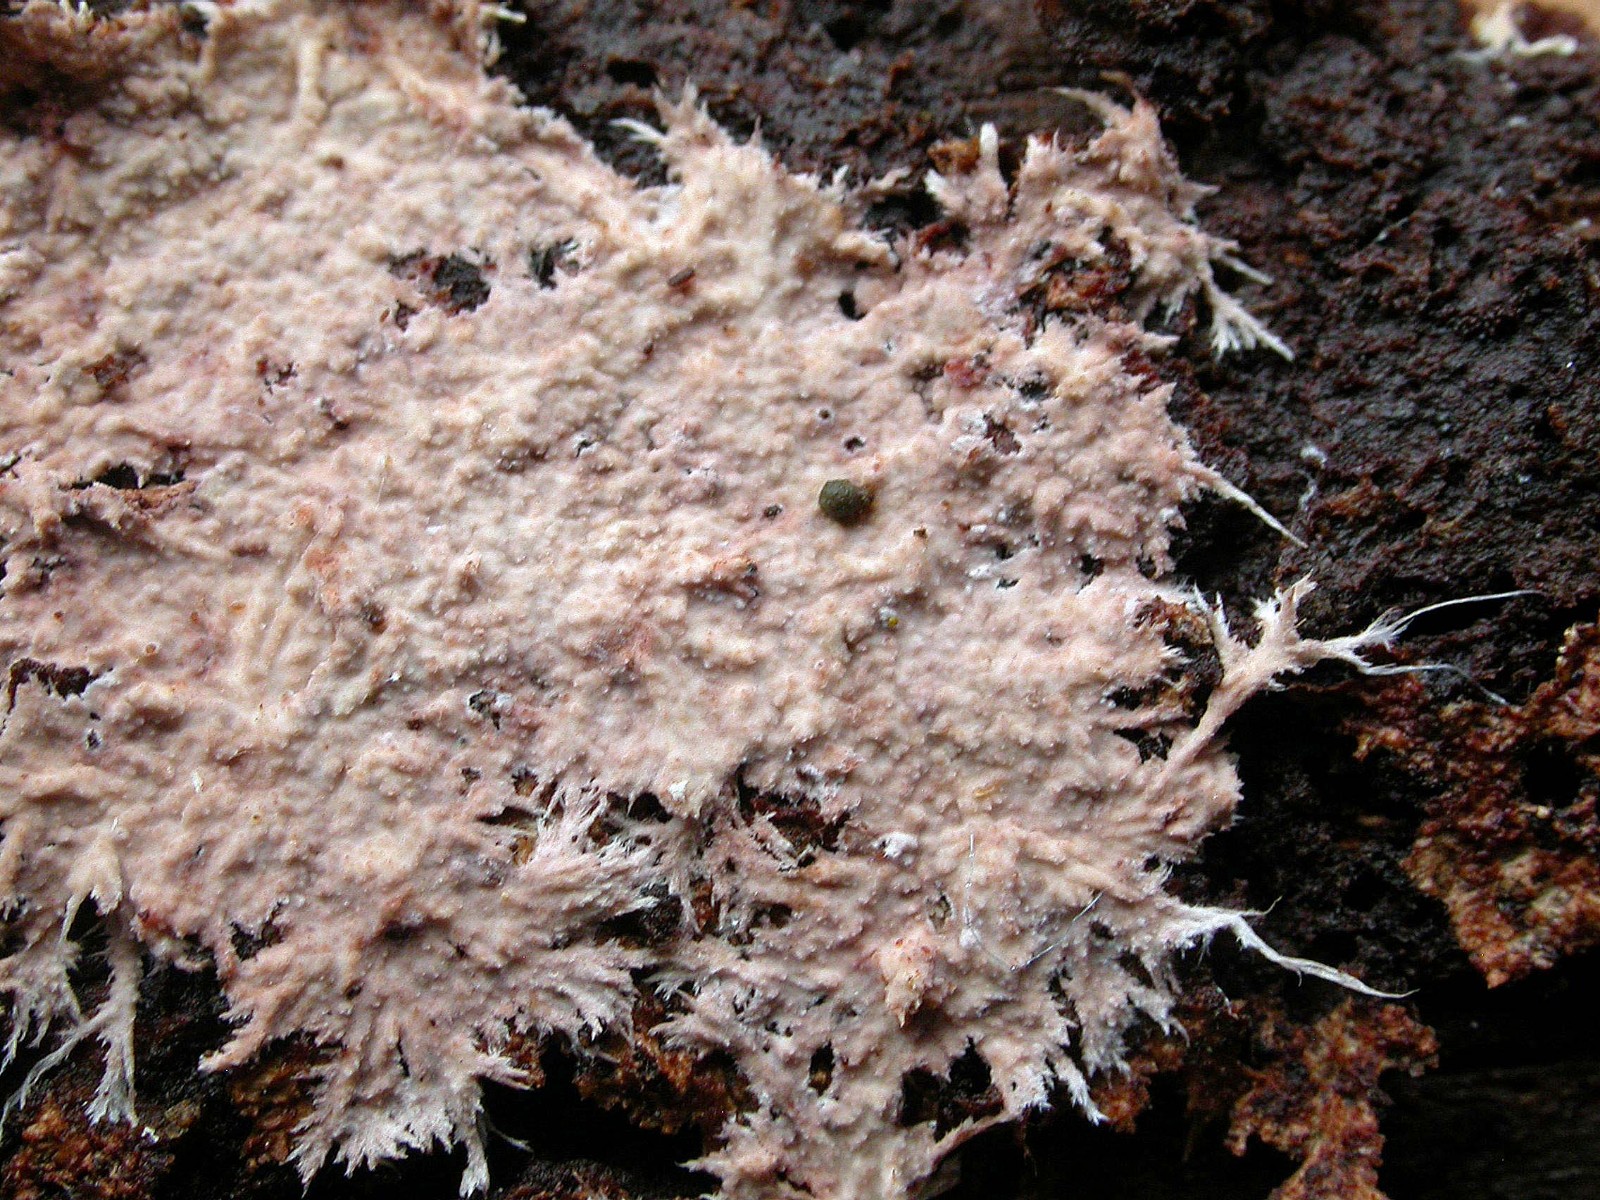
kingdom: Fungi
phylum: Basidiomycota
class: Agaricomycetes
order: Polyporales
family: Steccherinaceae
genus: Steccherinum
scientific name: Steccherinum fimbriatum
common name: trådet skønpig
